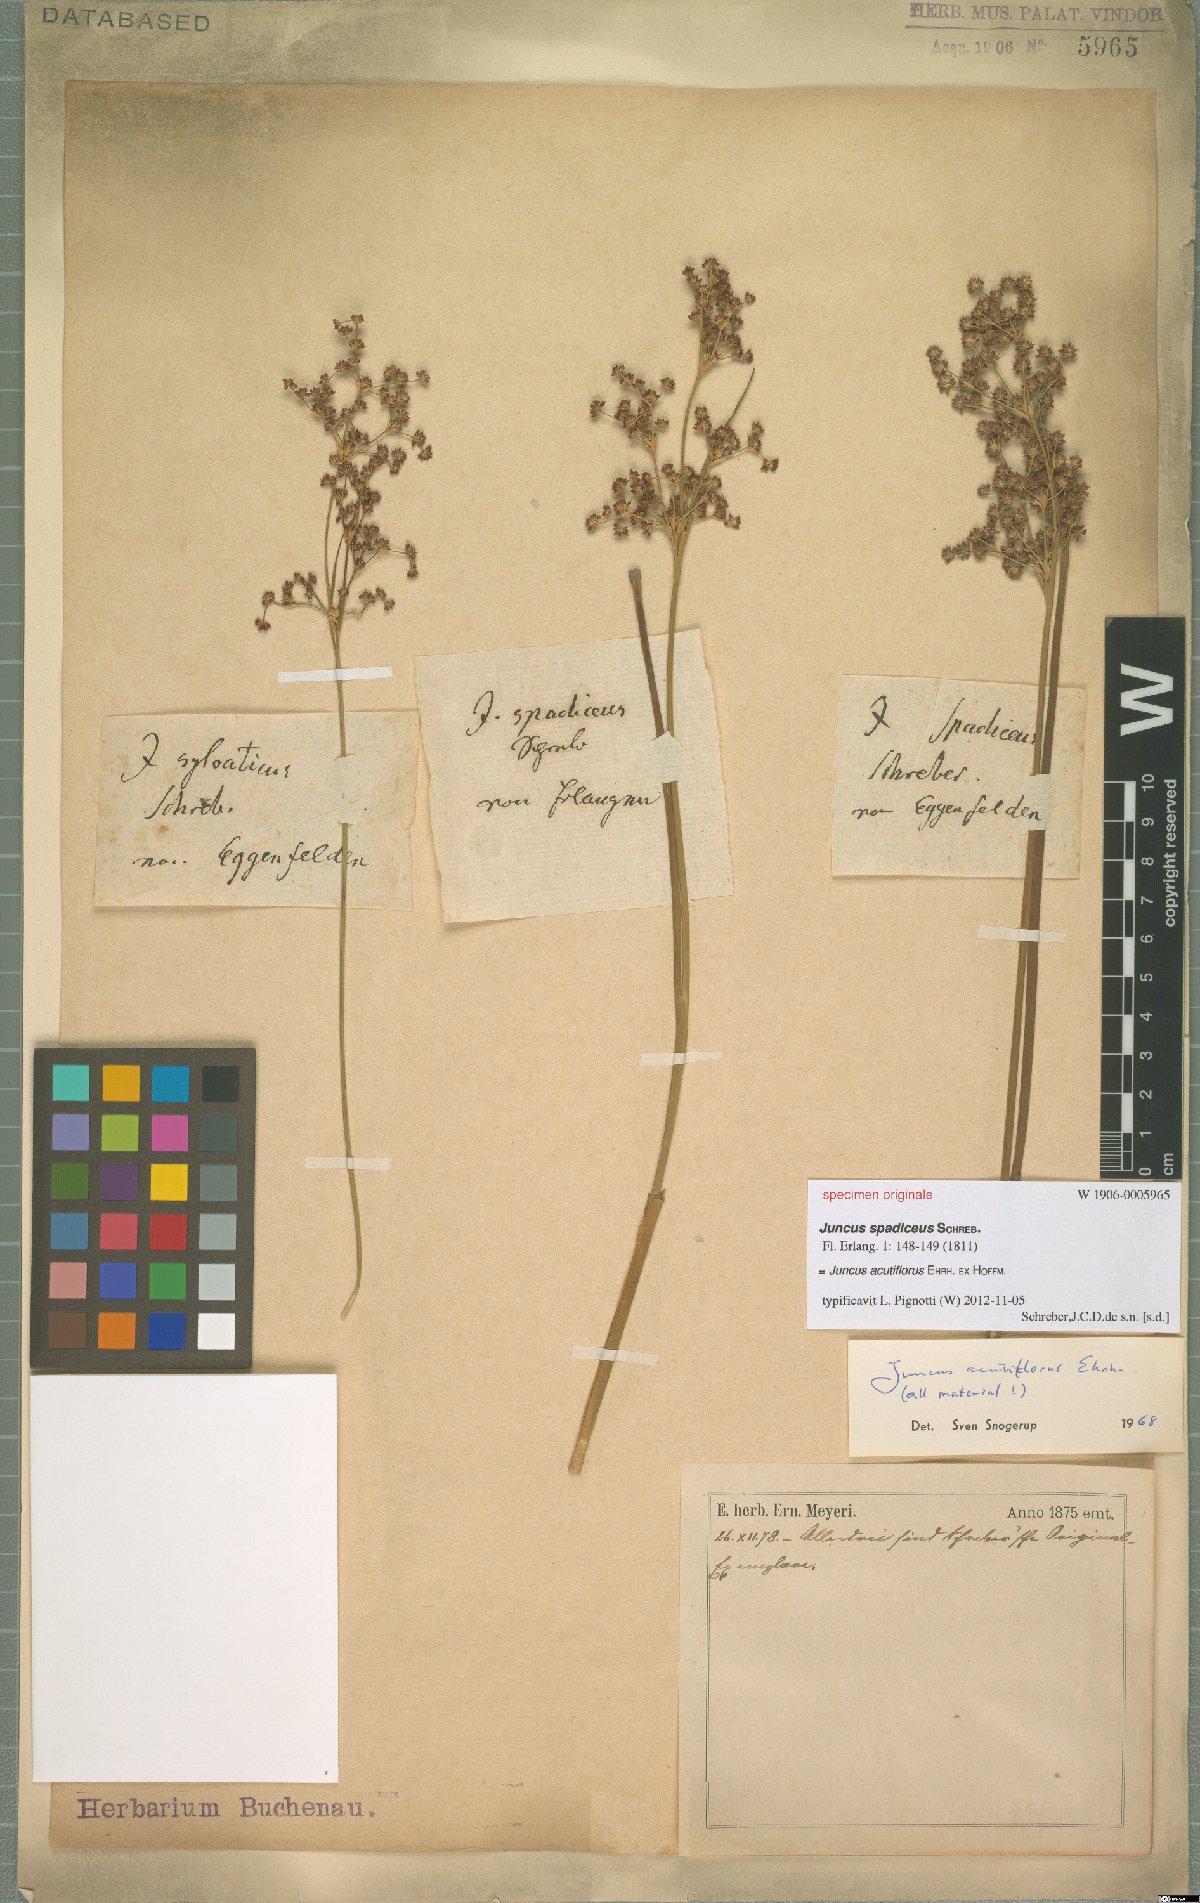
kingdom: Plantae
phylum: Tracheophyta
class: Liliopsida
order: Poales
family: Juncaceae
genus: Juncus
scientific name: Juncus acutiflorus
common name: Sharp-flowered rush
